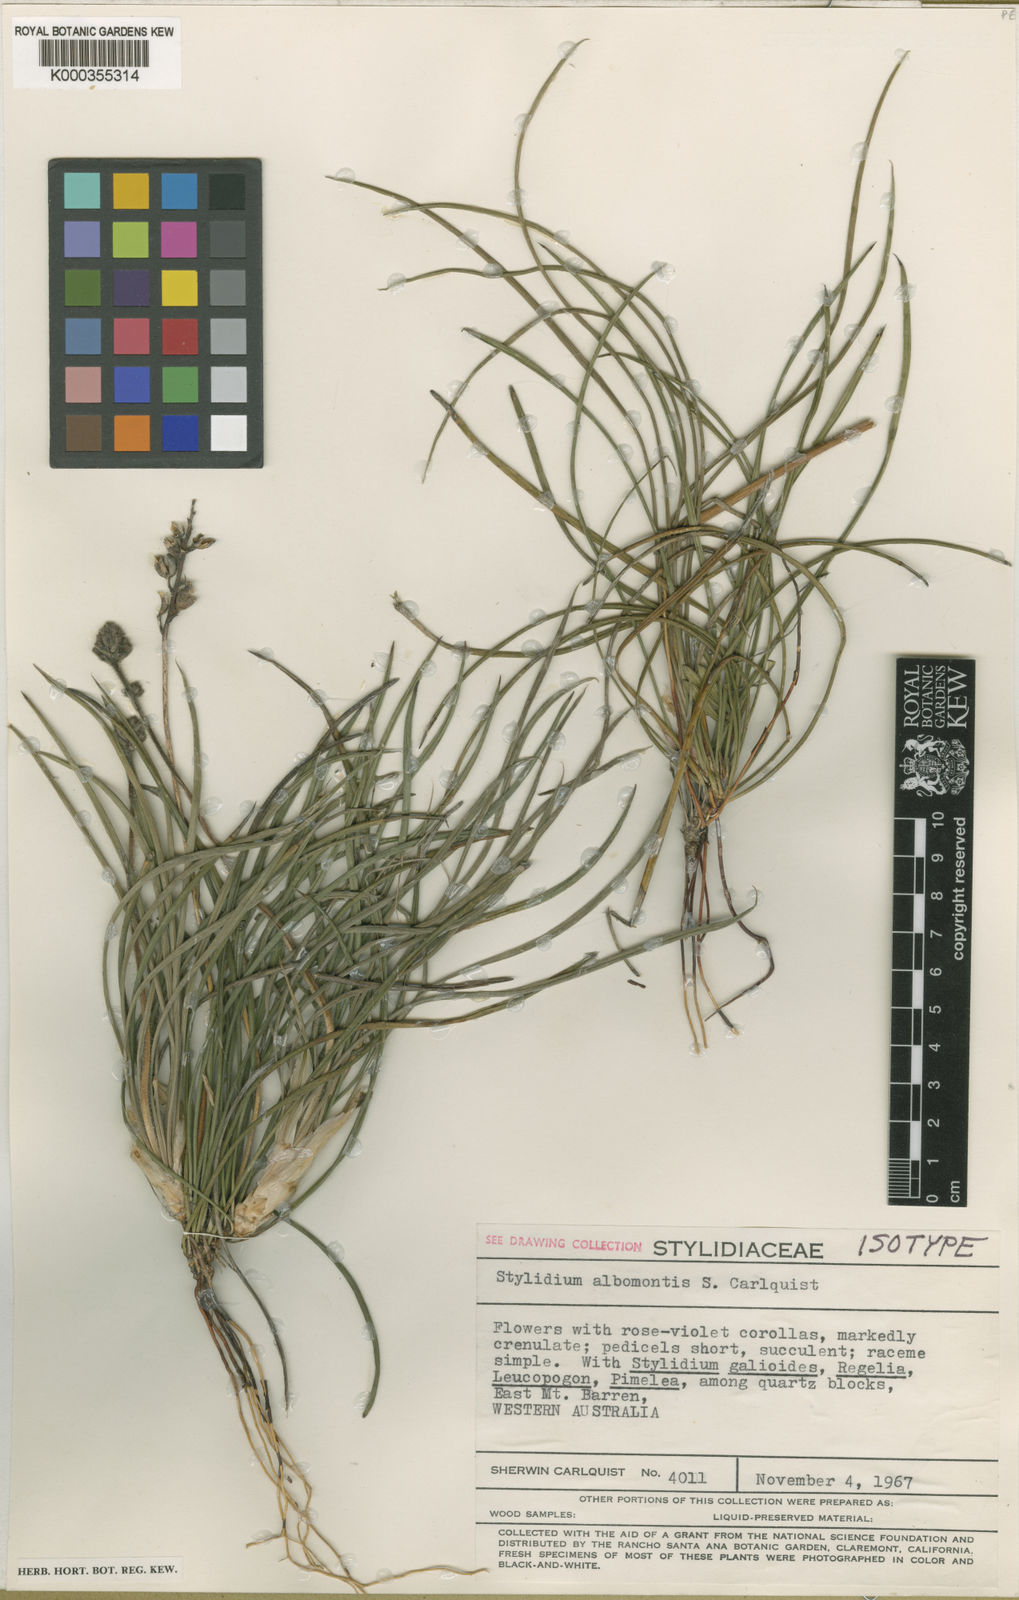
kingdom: Plantae
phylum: Tracheophyta
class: Magnoliopsida
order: Asterales
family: Stylidiaceae
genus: Stylidium
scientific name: Stylidium albomontis
